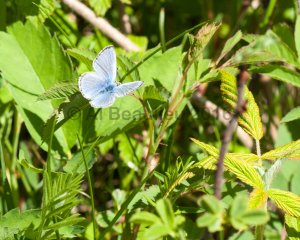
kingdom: Animalia
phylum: Arthropoda
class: Insecta
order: Lepidoptera
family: Lycaenidae
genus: Glaucopsyche
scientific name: Glaucopsyche lygdamus
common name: Silvery Blue
